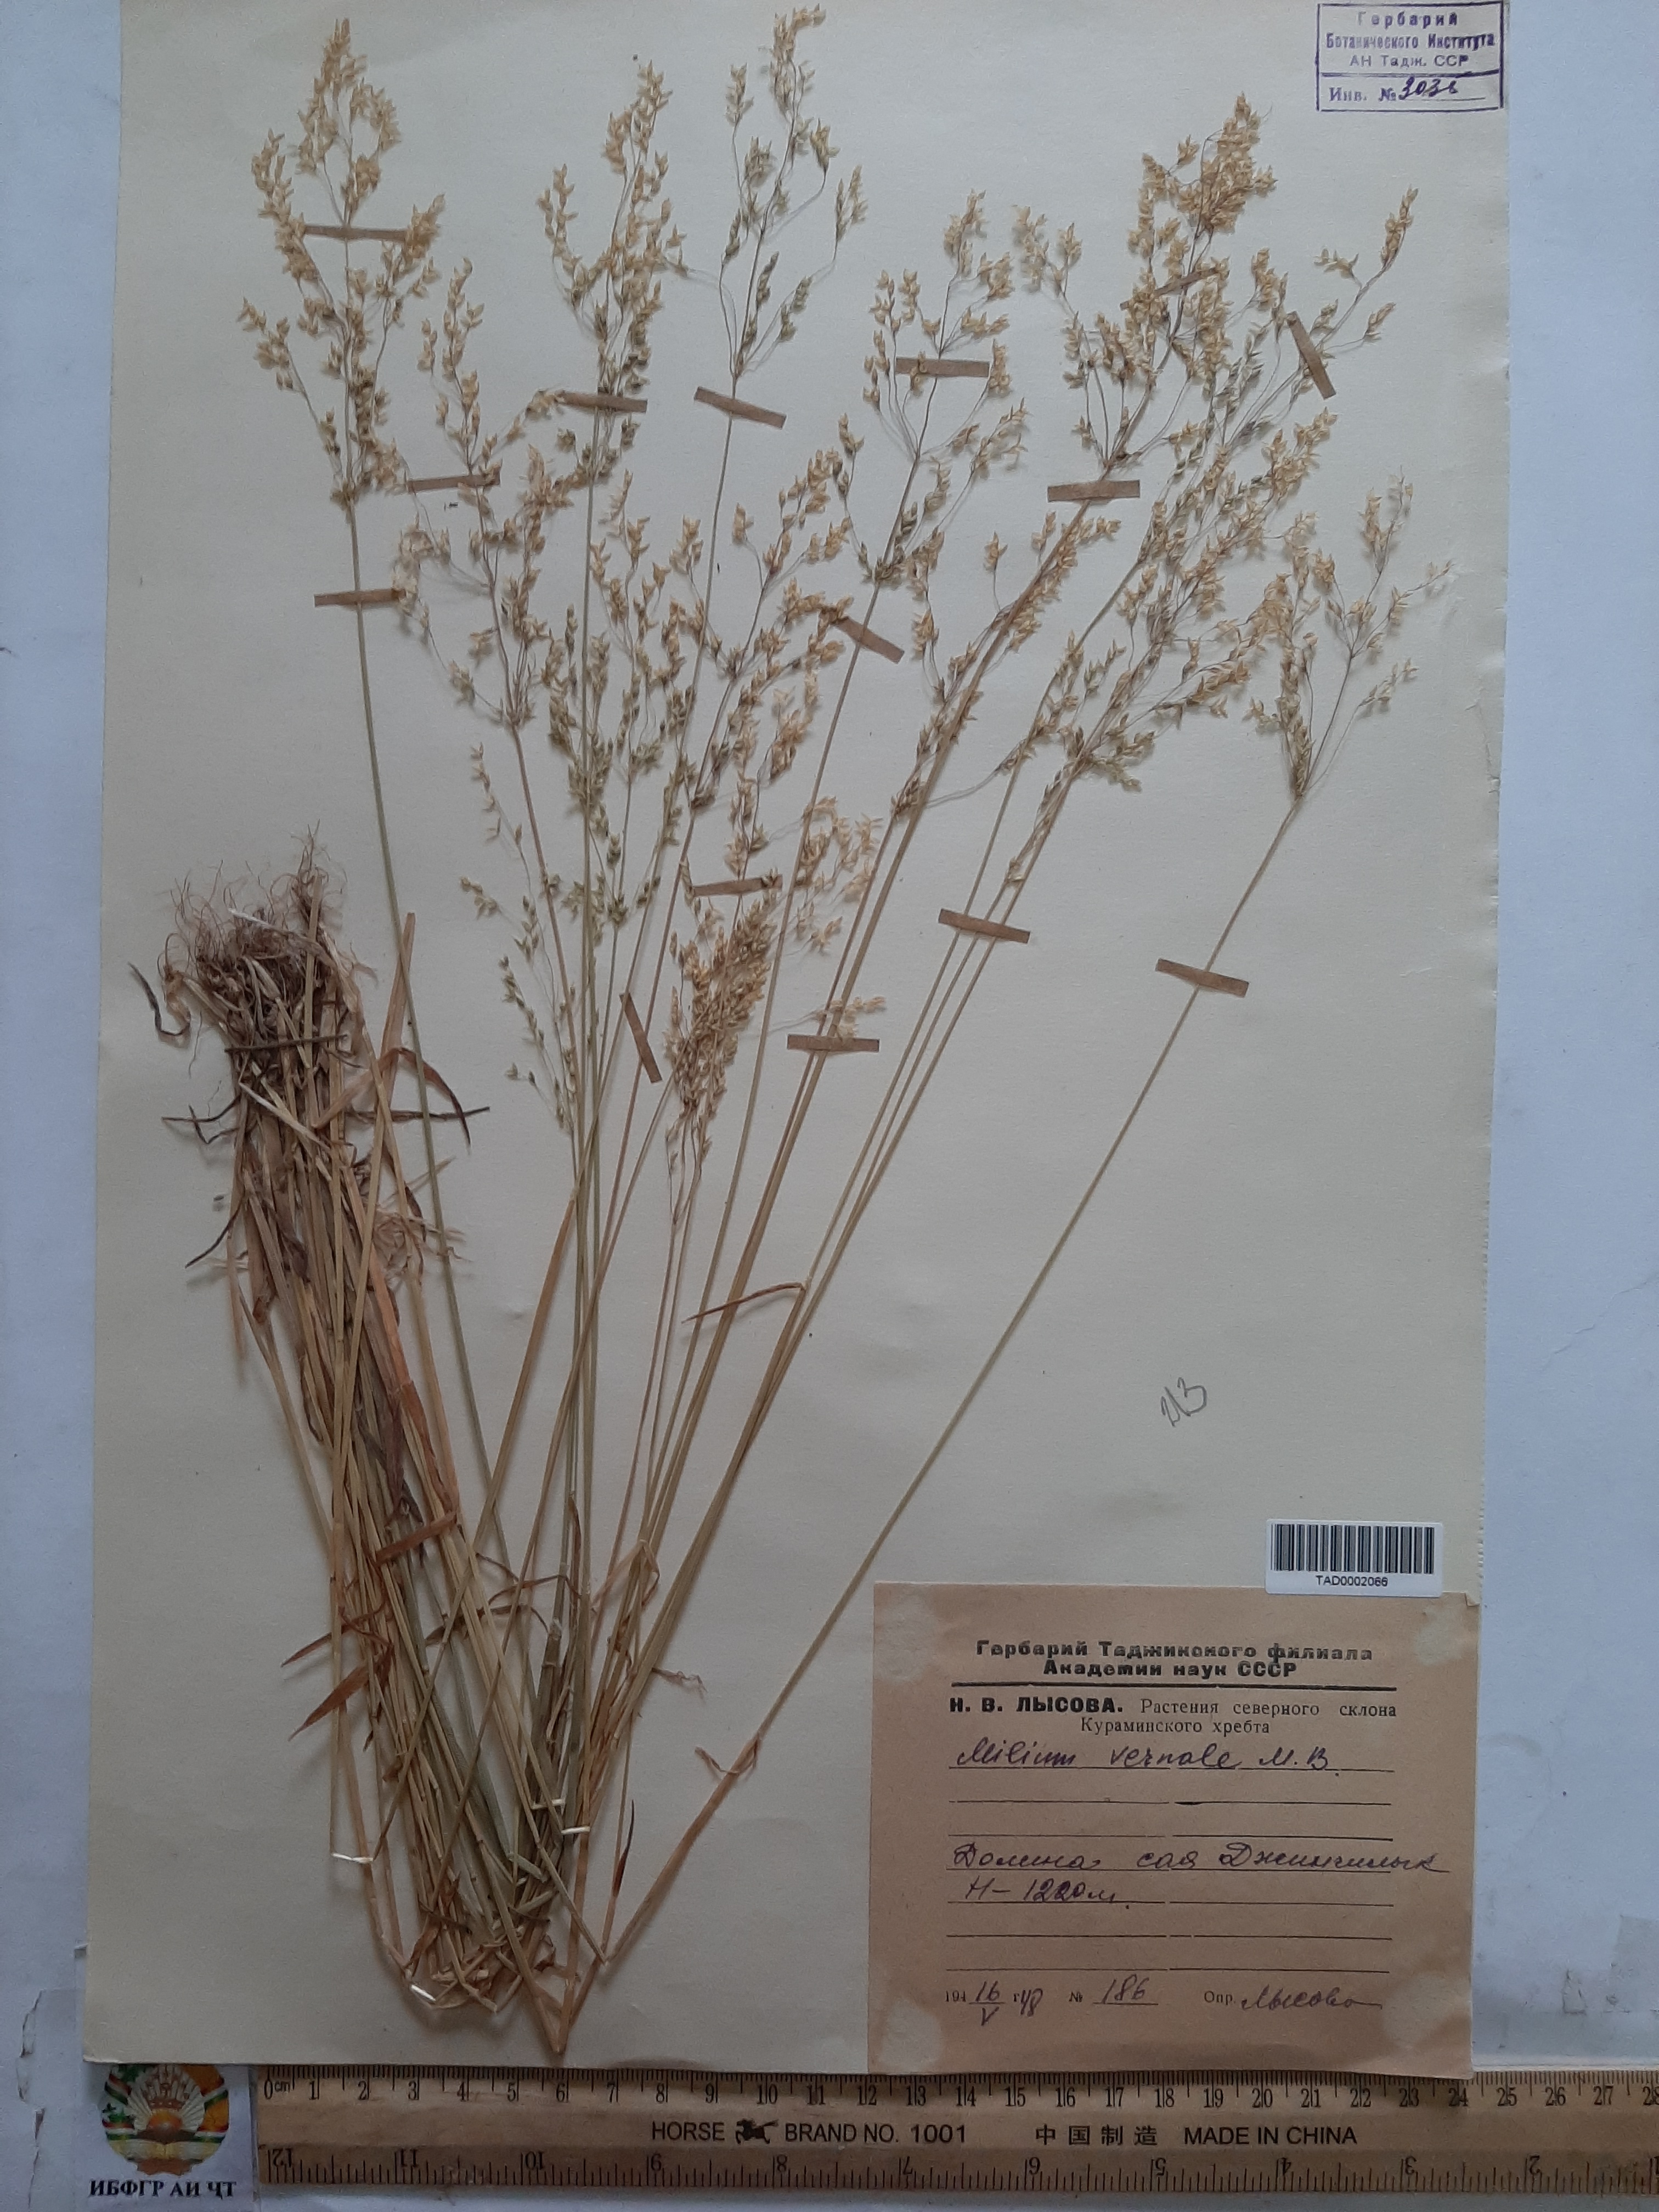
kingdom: Plantae
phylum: Tracheophyta
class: Liliopsida
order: Poales
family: Poaceae
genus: Milium
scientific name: Milium vernale
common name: Early millet
